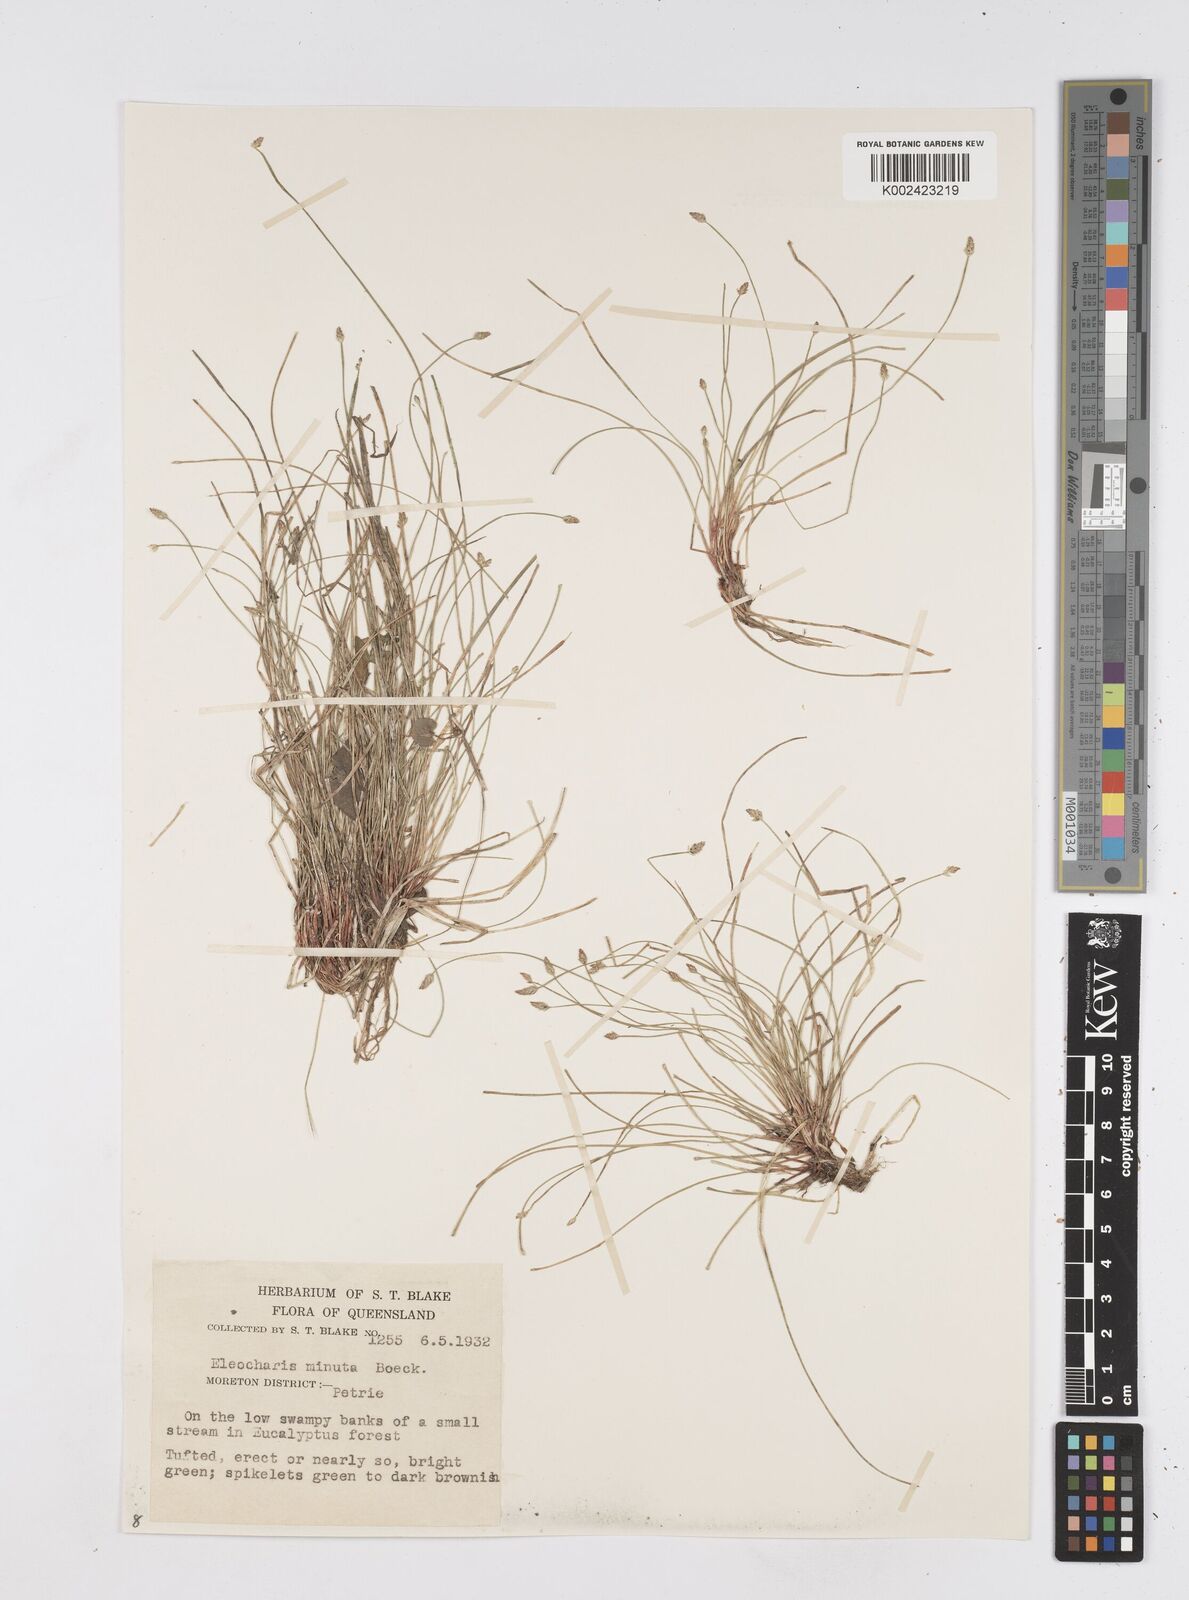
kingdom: Plantae
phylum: Tracheophyta
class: Liliopsida
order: Poales
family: Cyperaceae
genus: Eleocharis
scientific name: Eleocharis minuta
